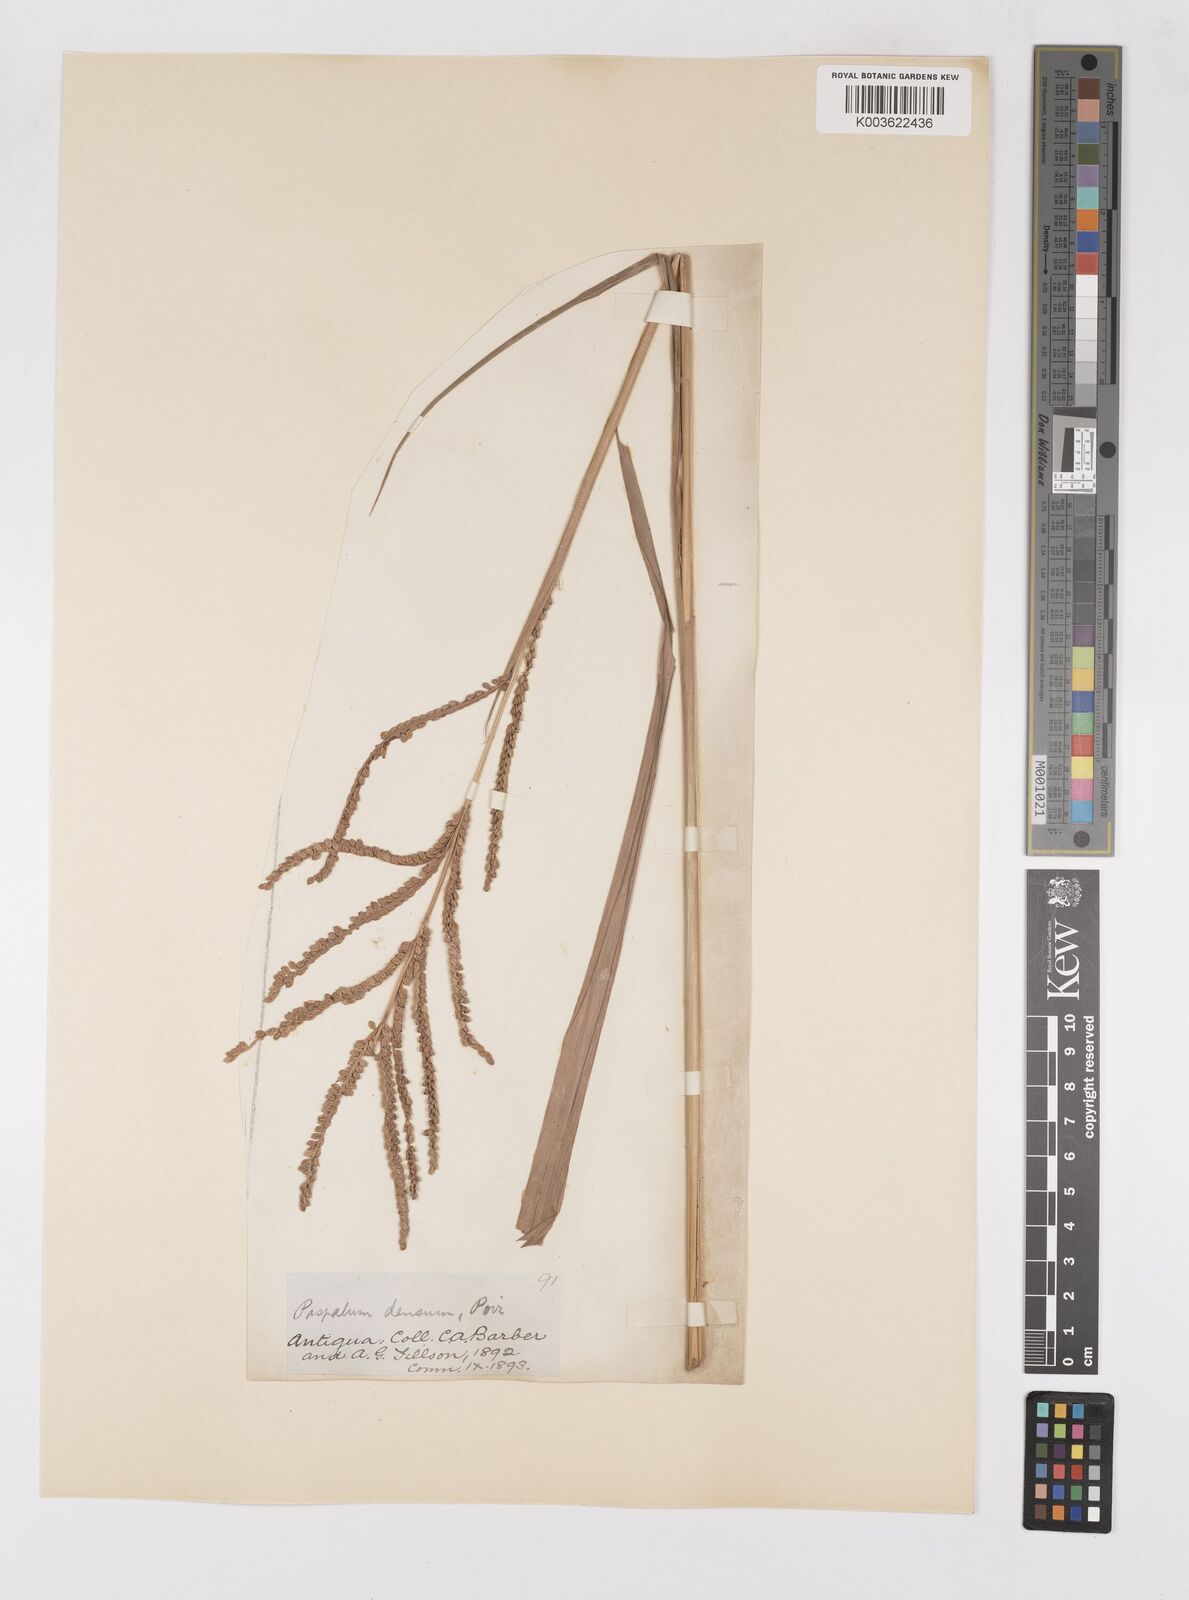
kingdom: Plantae
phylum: Tracheophyta
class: Liliopsida
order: Poales
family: Poaceae
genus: Paspalum
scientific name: Paspalum virgatum
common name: Talquezal
